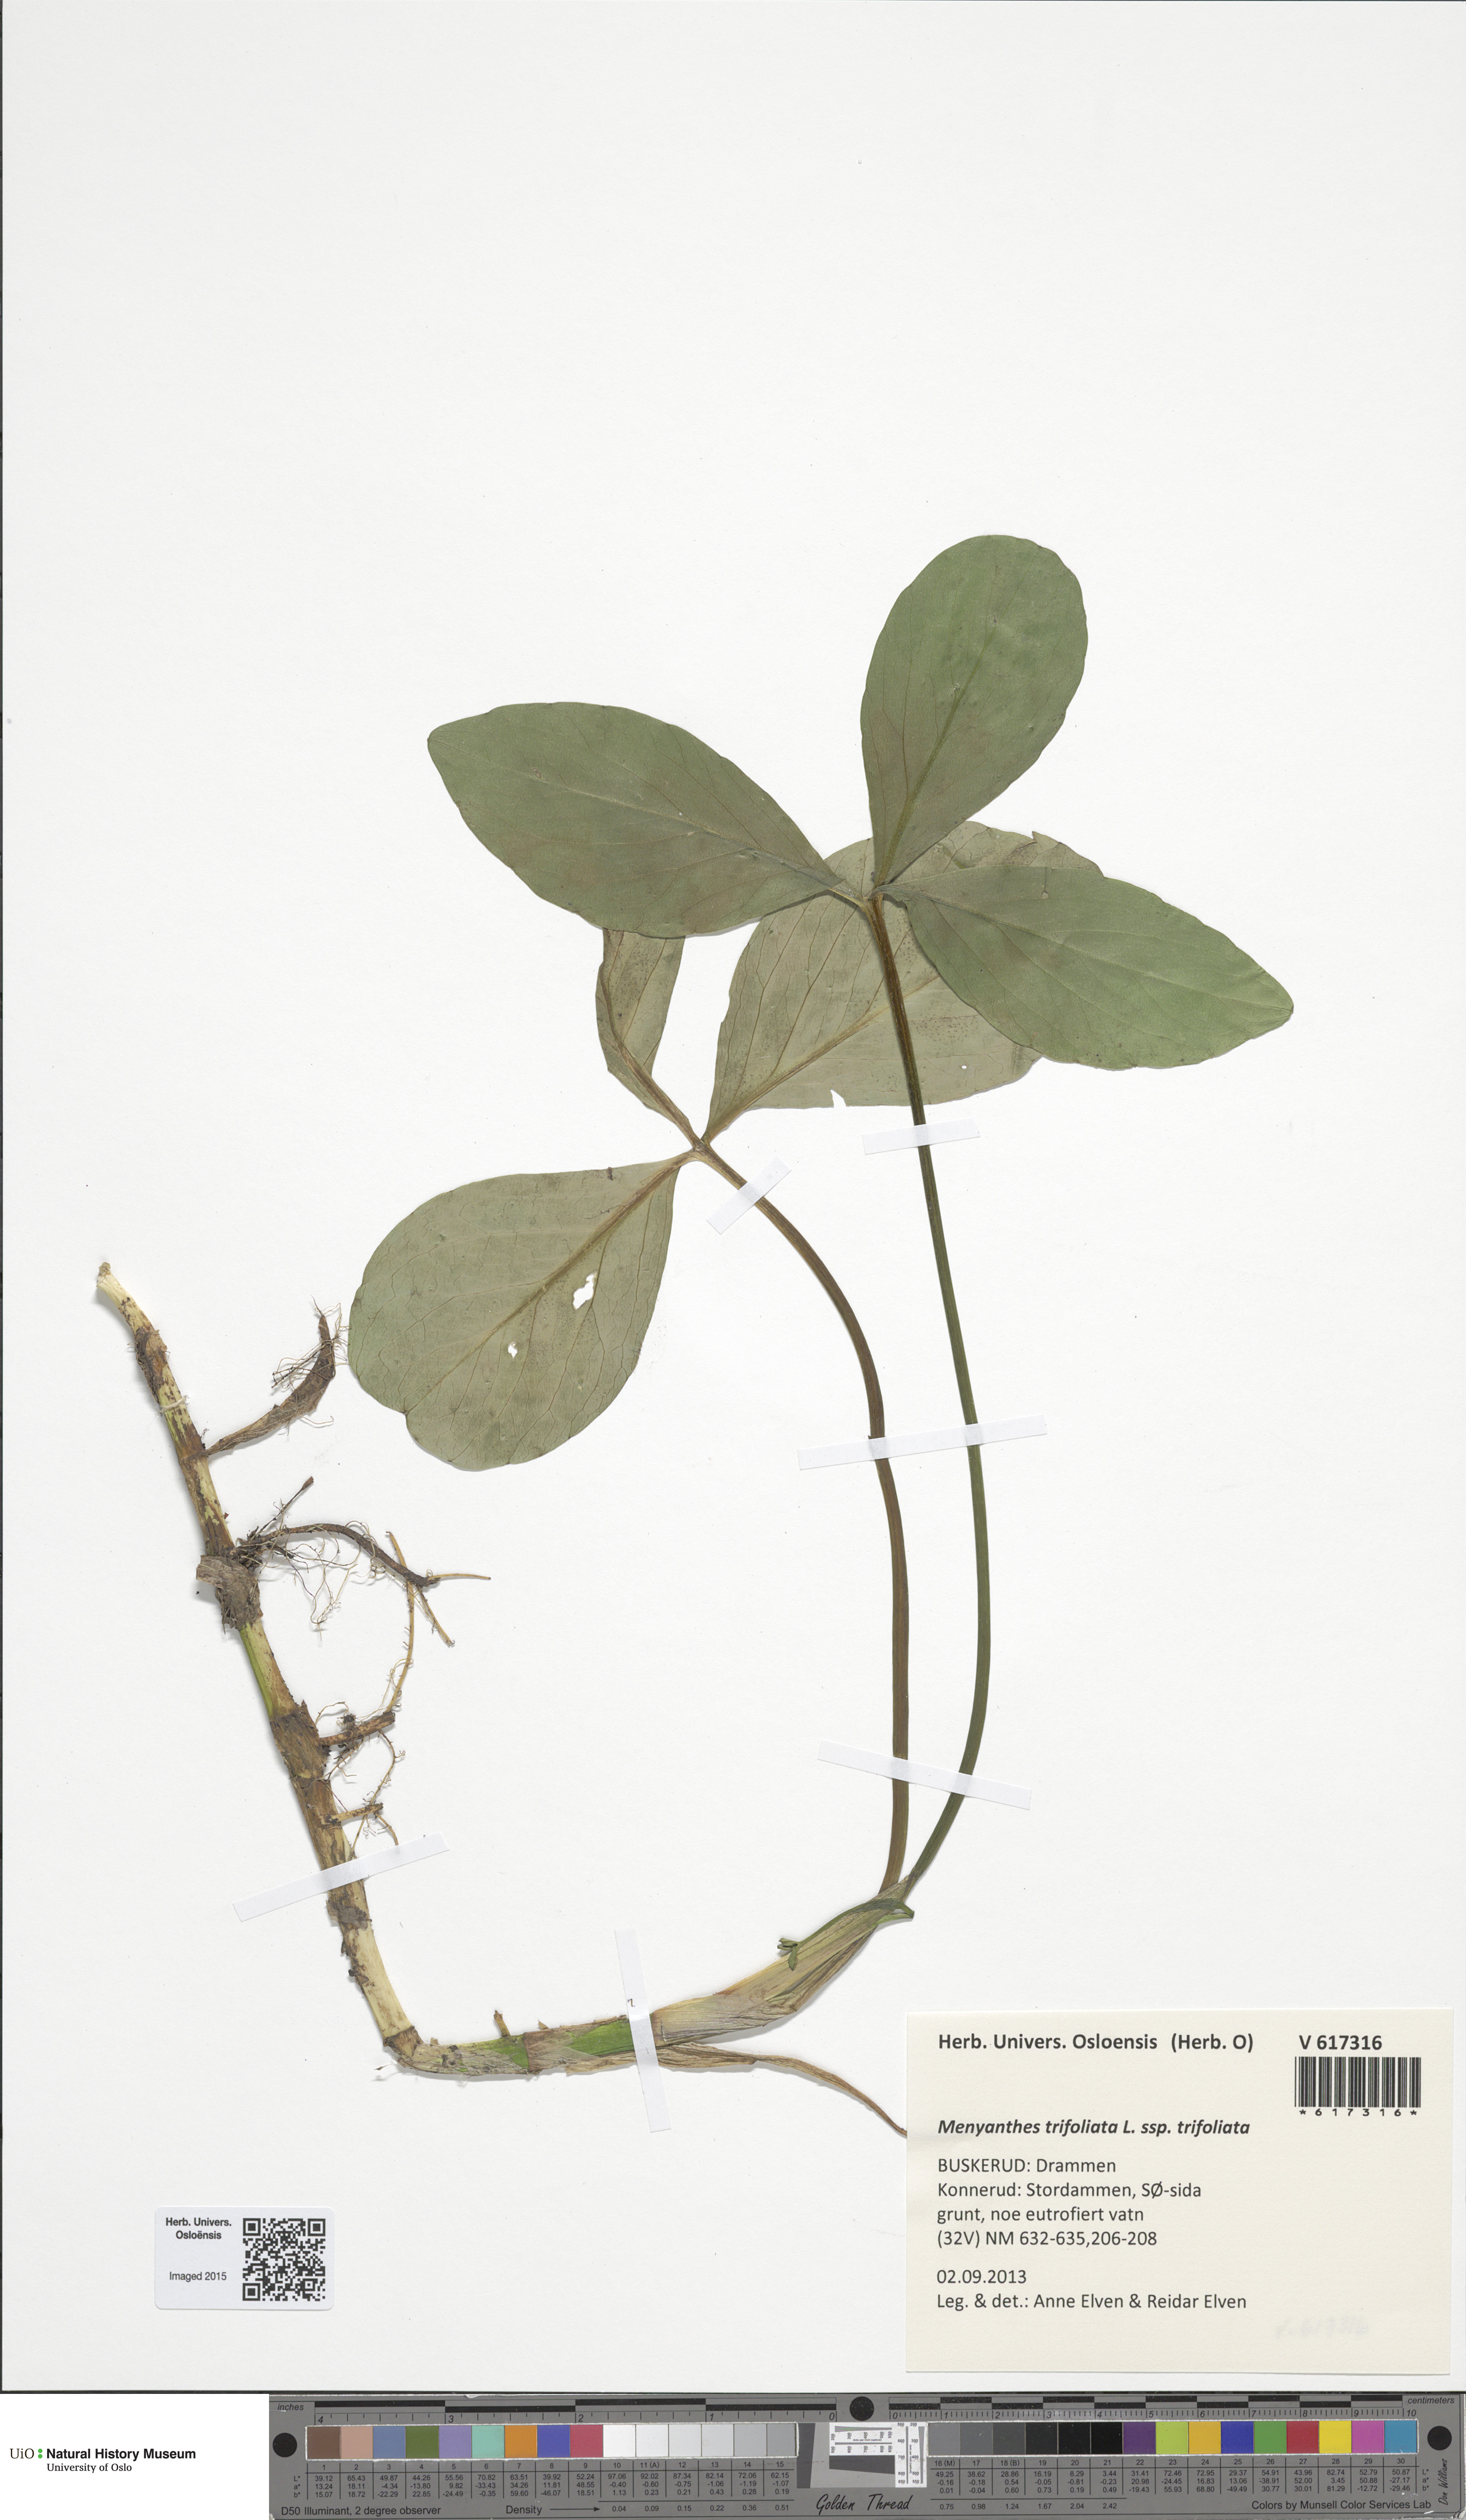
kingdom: Plantae
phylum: Tracheophyta
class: Magnoliopsida
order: Asterales
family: Menyanthaceae
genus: Menyanthes
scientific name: Menyanthes trifoliata
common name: Bogbean
